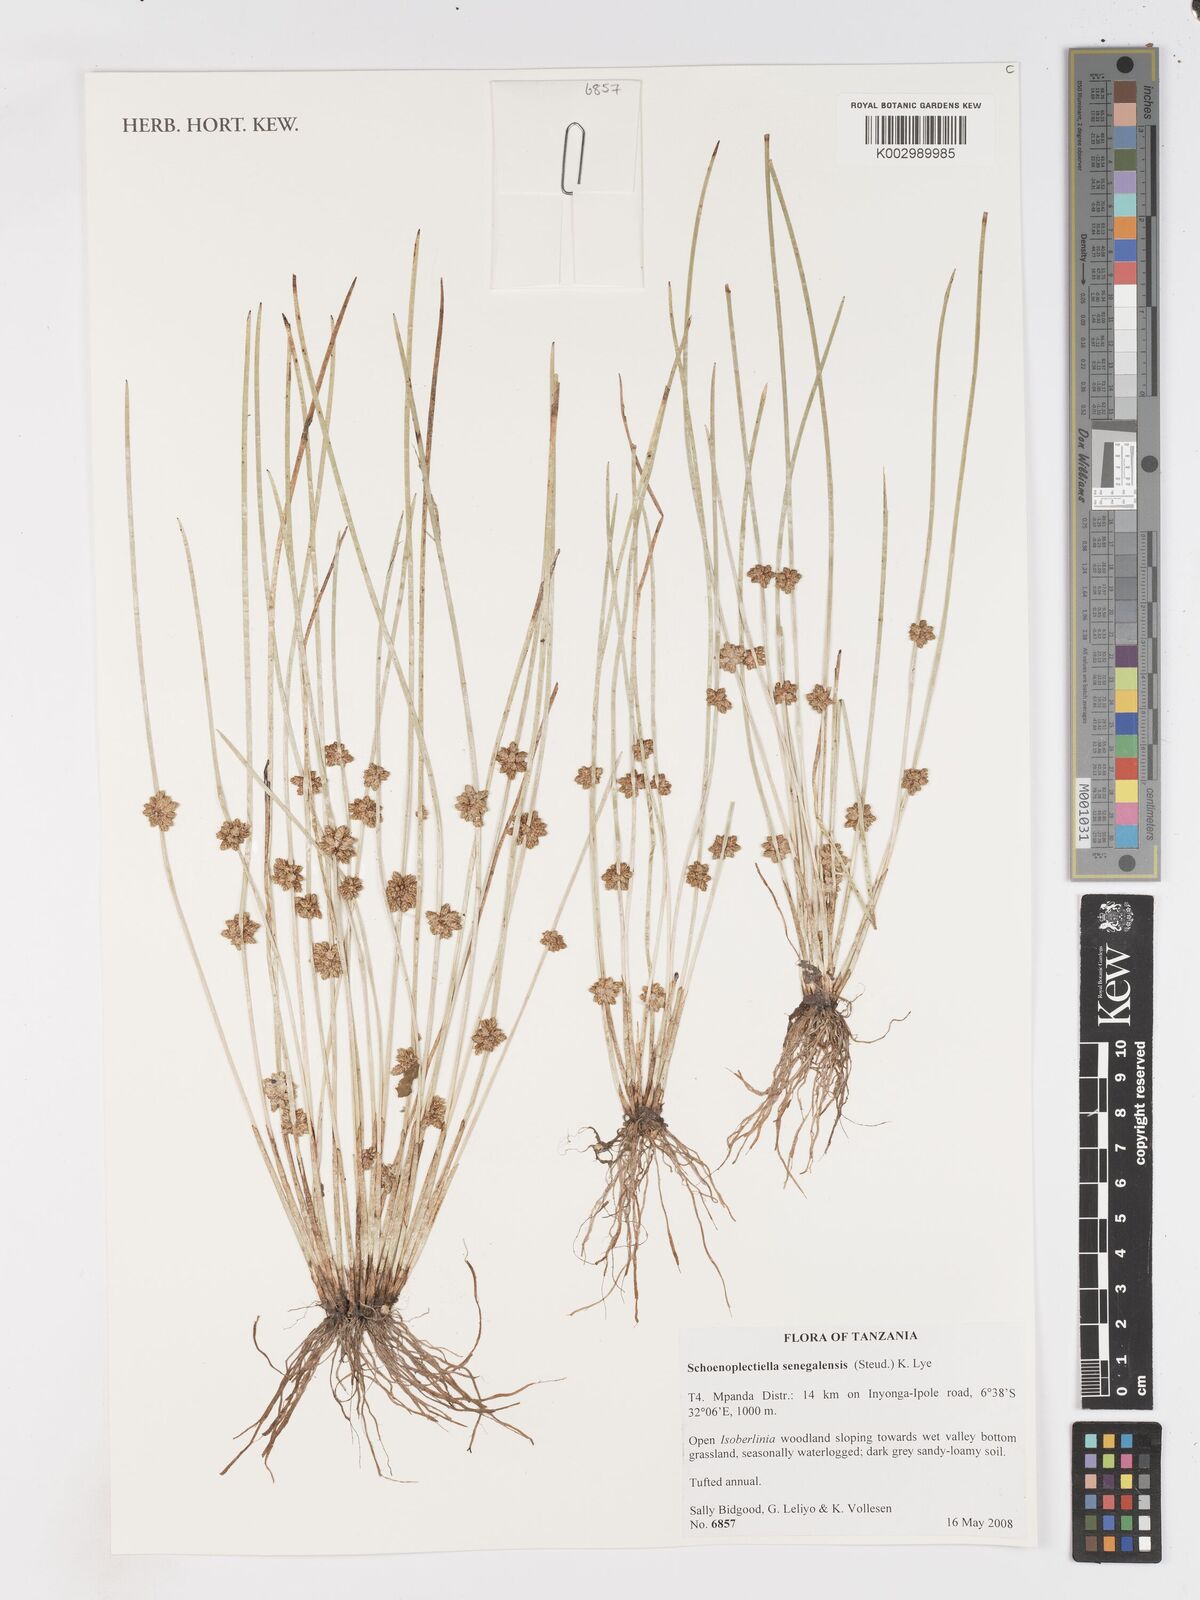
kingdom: Plantae
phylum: Tracheophyta
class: Liliopsida
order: Poales
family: Cyperaceae
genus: Schoenoplectiella
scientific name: Schoenoplectiella senegalensis
